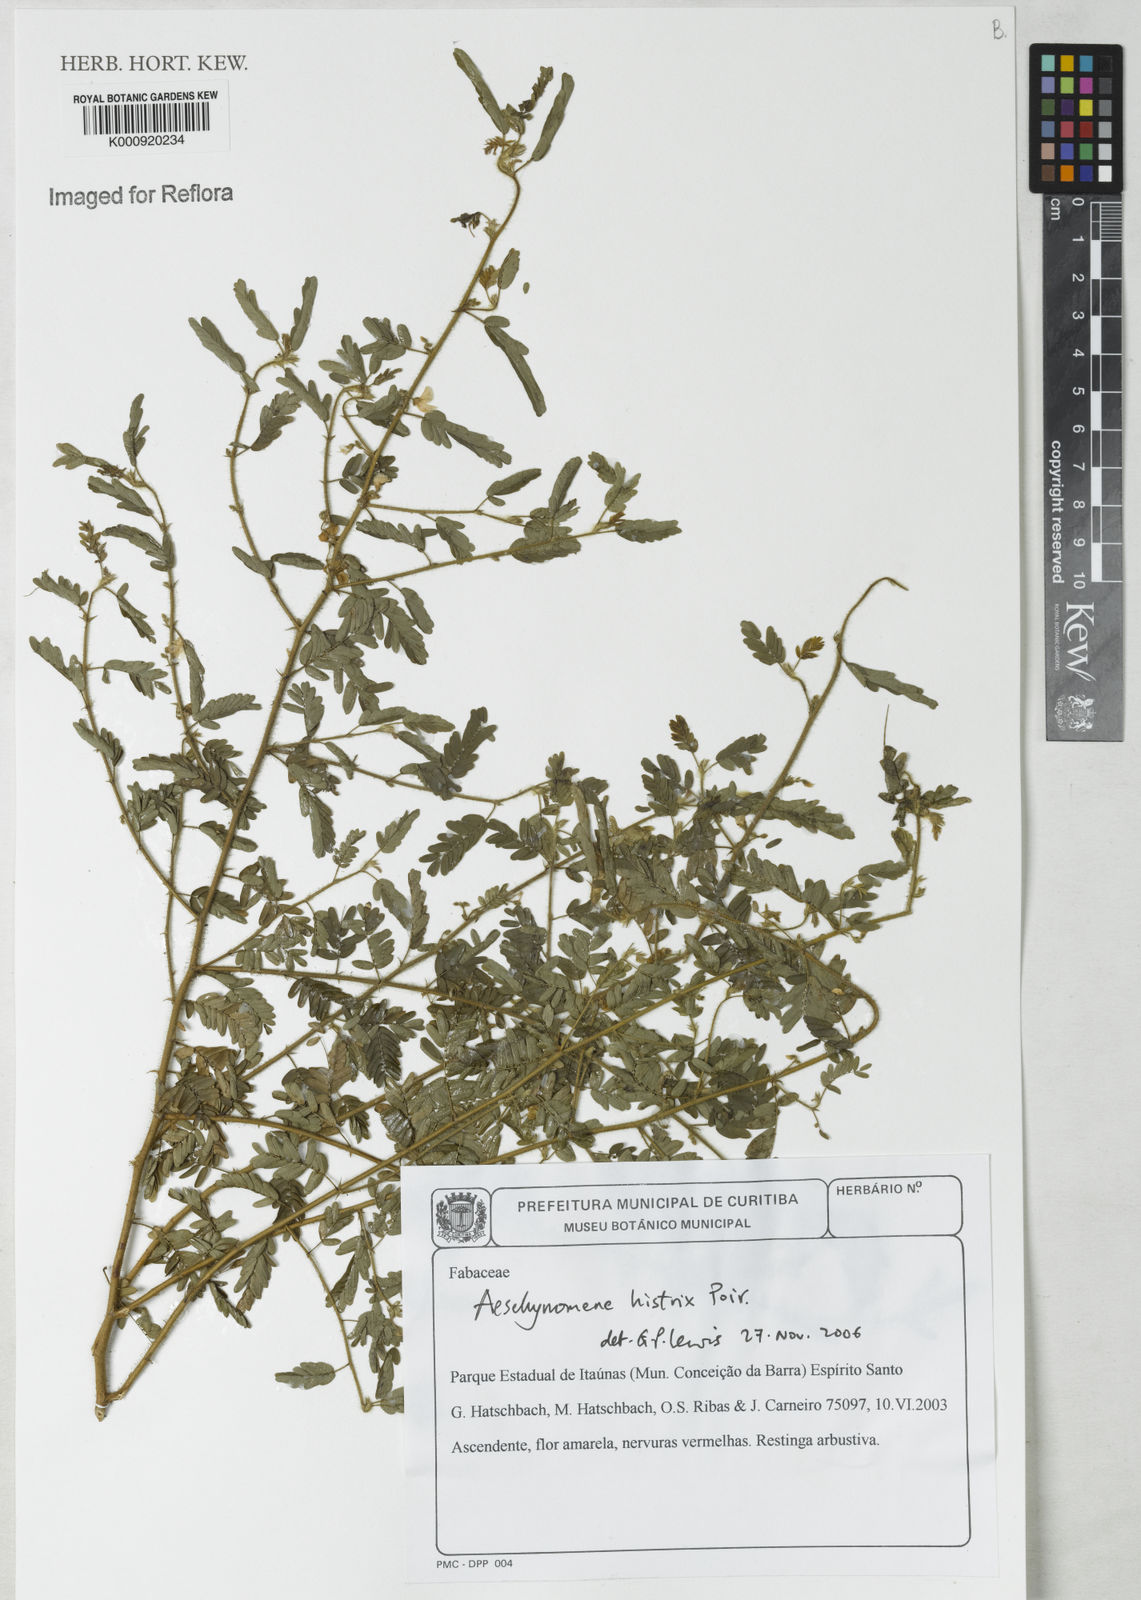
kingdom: Plantae
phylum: Tracheophyta
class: Magnoliopsida
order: Fabales
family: Fabaceae
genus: Ctenodon
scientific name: Ctenodon histrix
